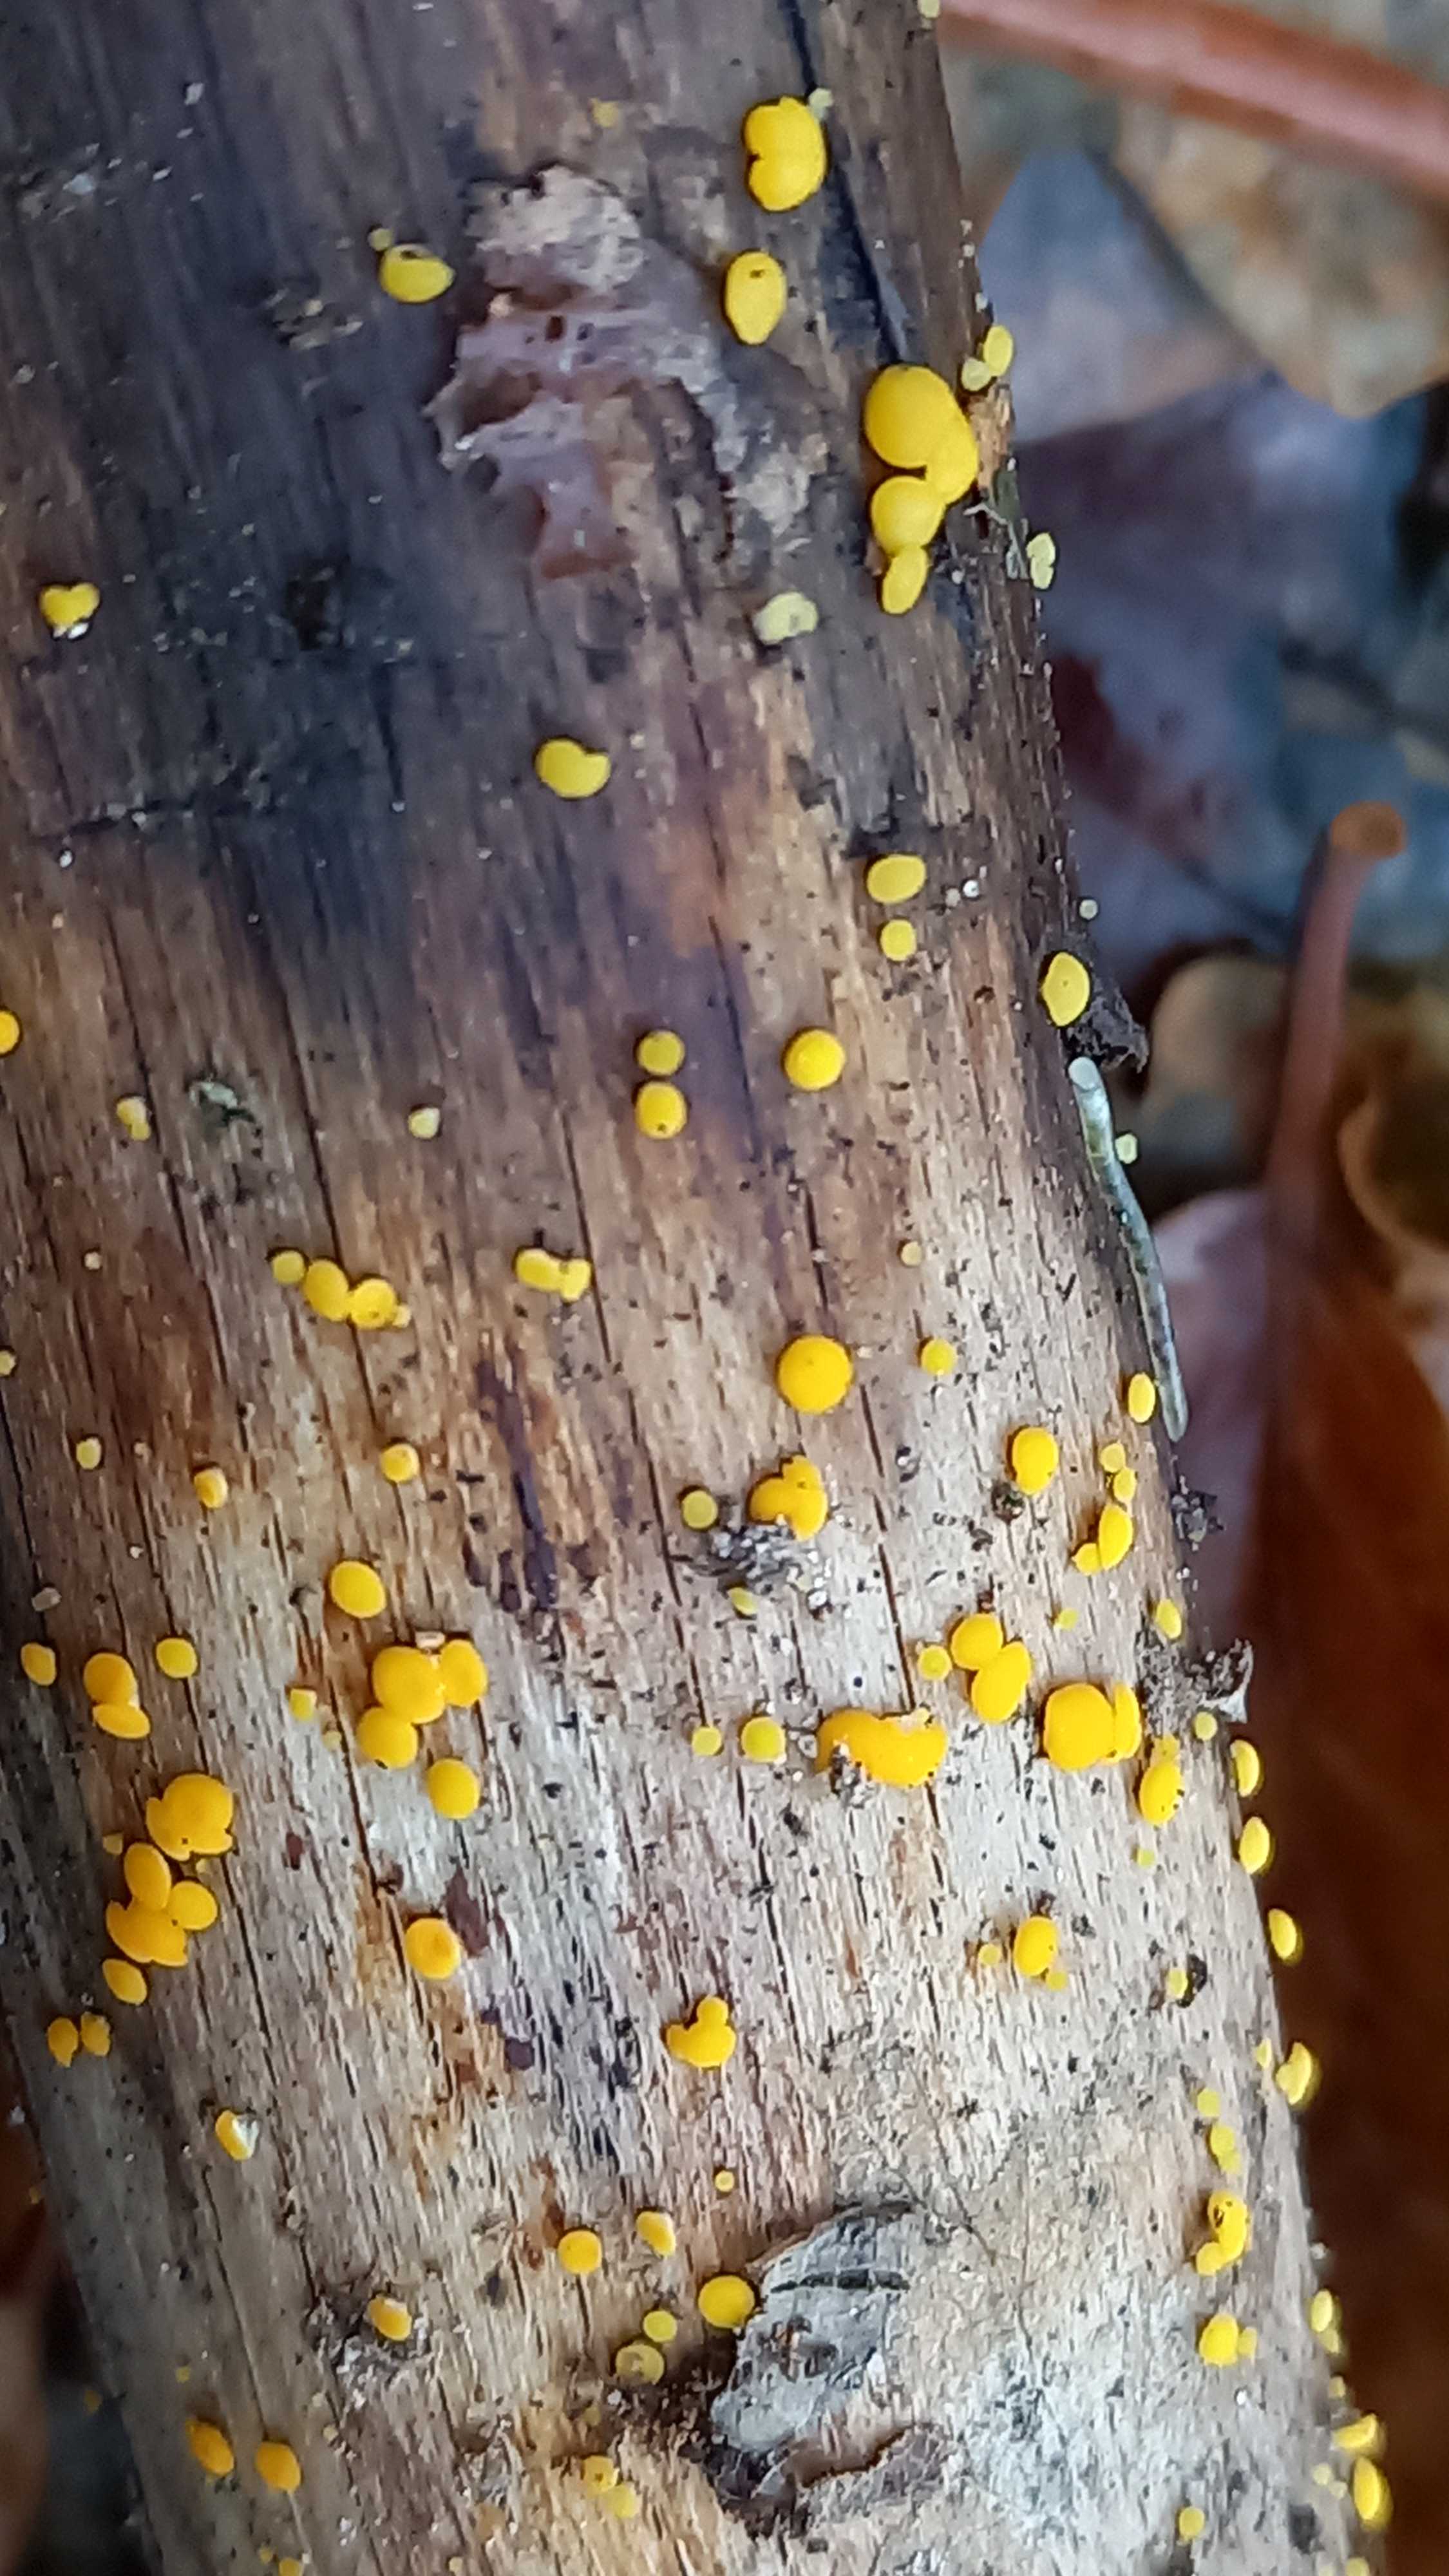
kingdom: Fungi
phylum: Ascomycota
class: Leotiomycetes
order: Helotiales
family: Pezizellaceae
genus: Calycina
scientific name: Calycina citrina
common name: almindelig gulskive
